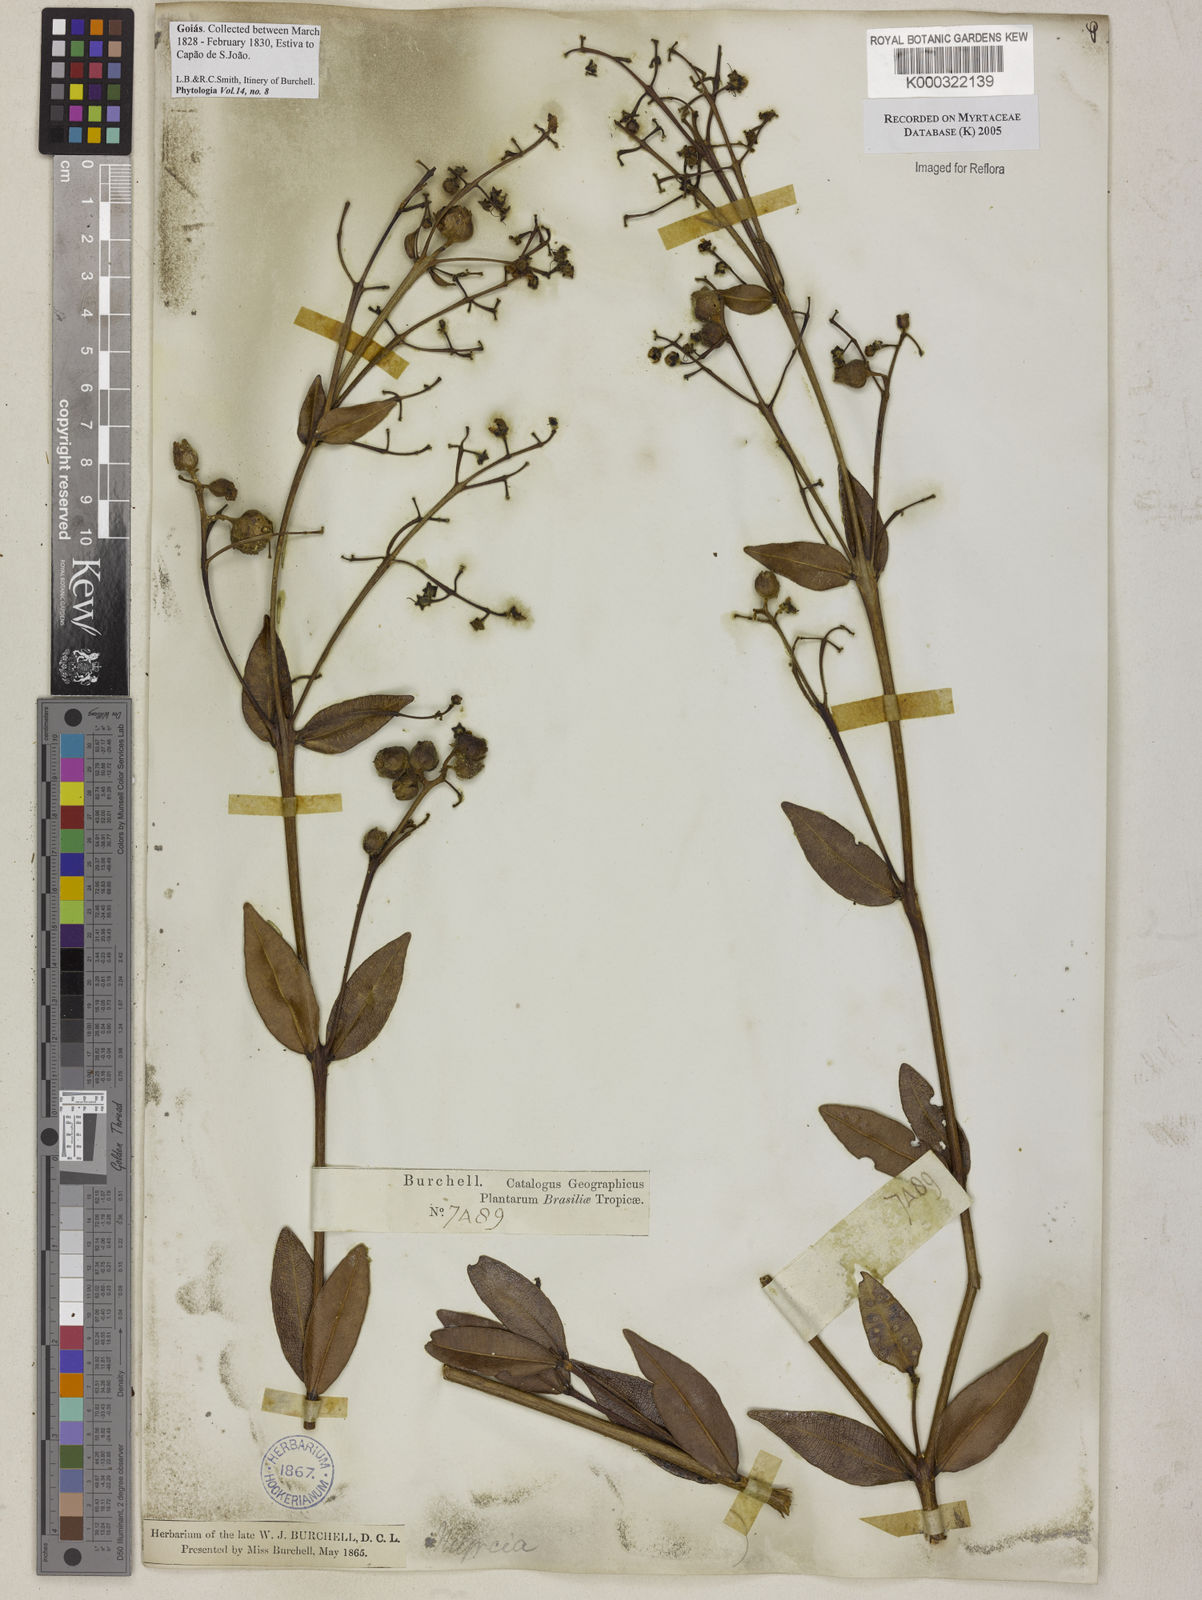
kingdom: Plantae
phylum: Tracheophyta
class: Magnoliopsida
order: Myrtales
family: Myrtaceae
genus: Myrcia
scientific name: Myrcia
